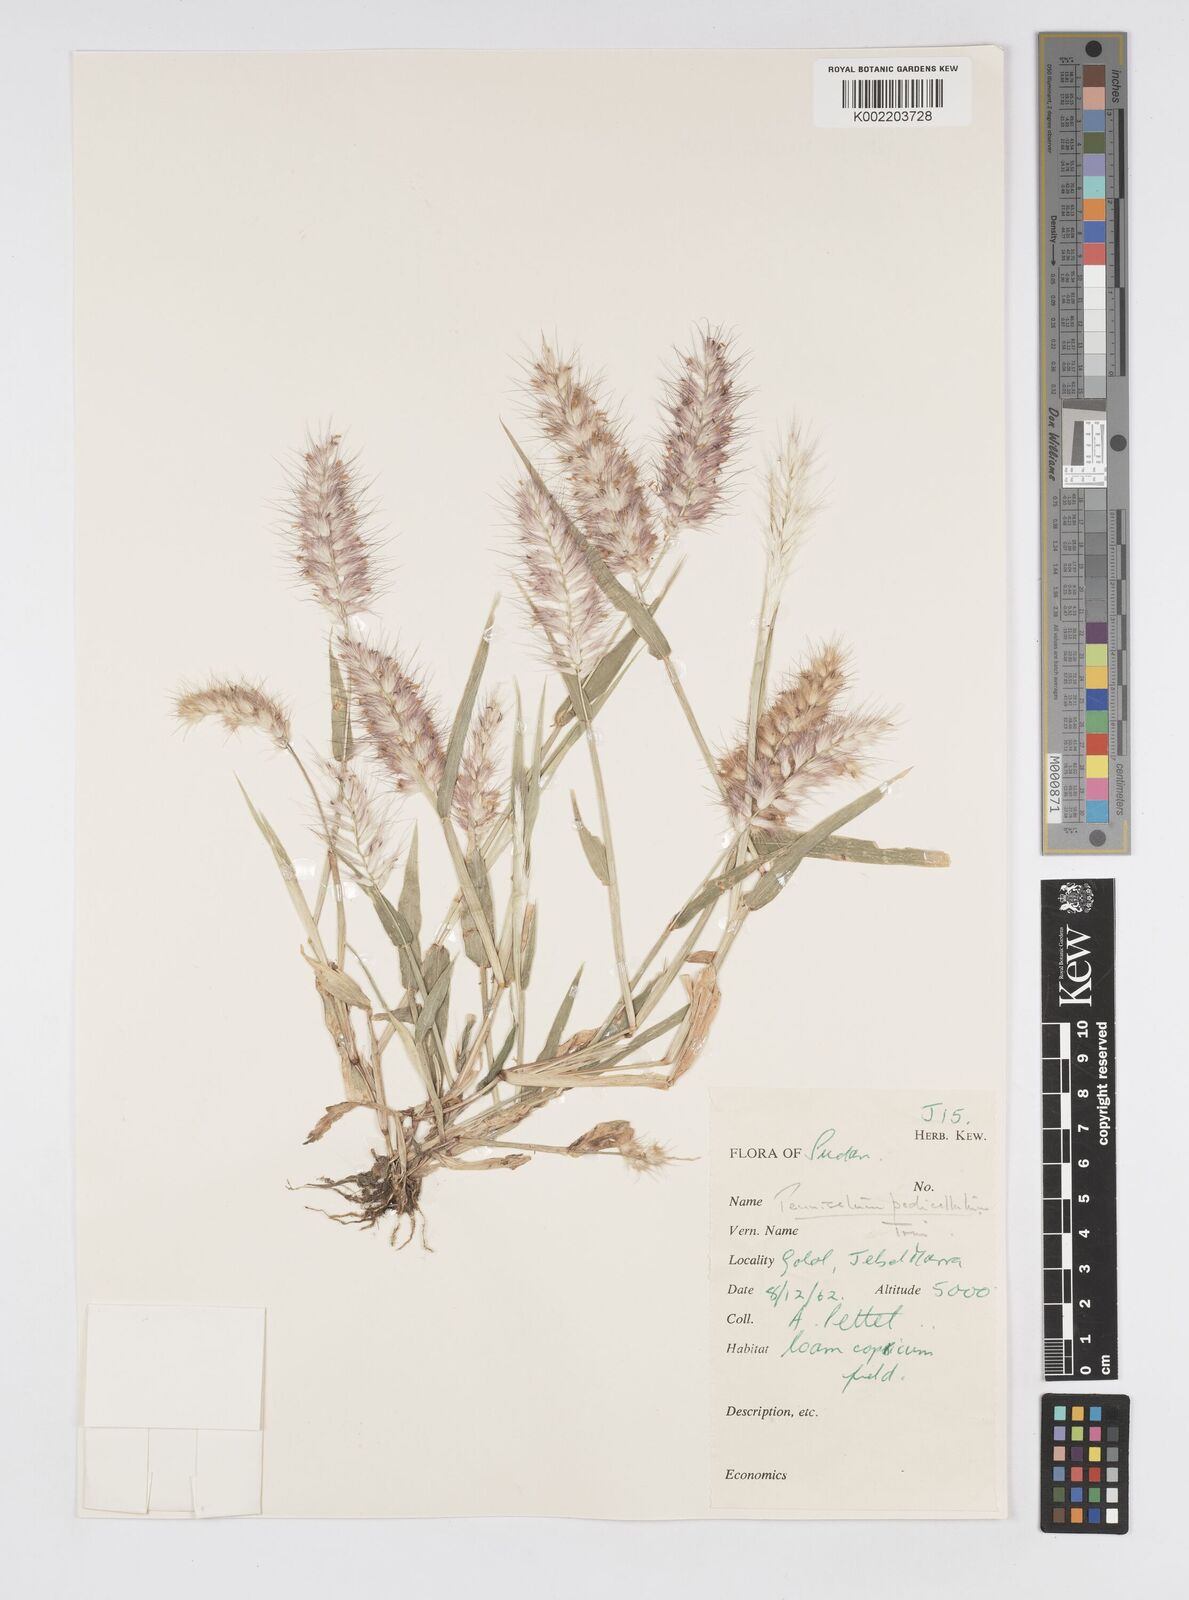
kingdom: Plantae
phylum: Tracheophyta
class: Liliopsida
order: Poales
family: Poaceae
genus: Cenchrus
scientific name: Cenchrus pedicellatus
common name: Hairy fountain grass
